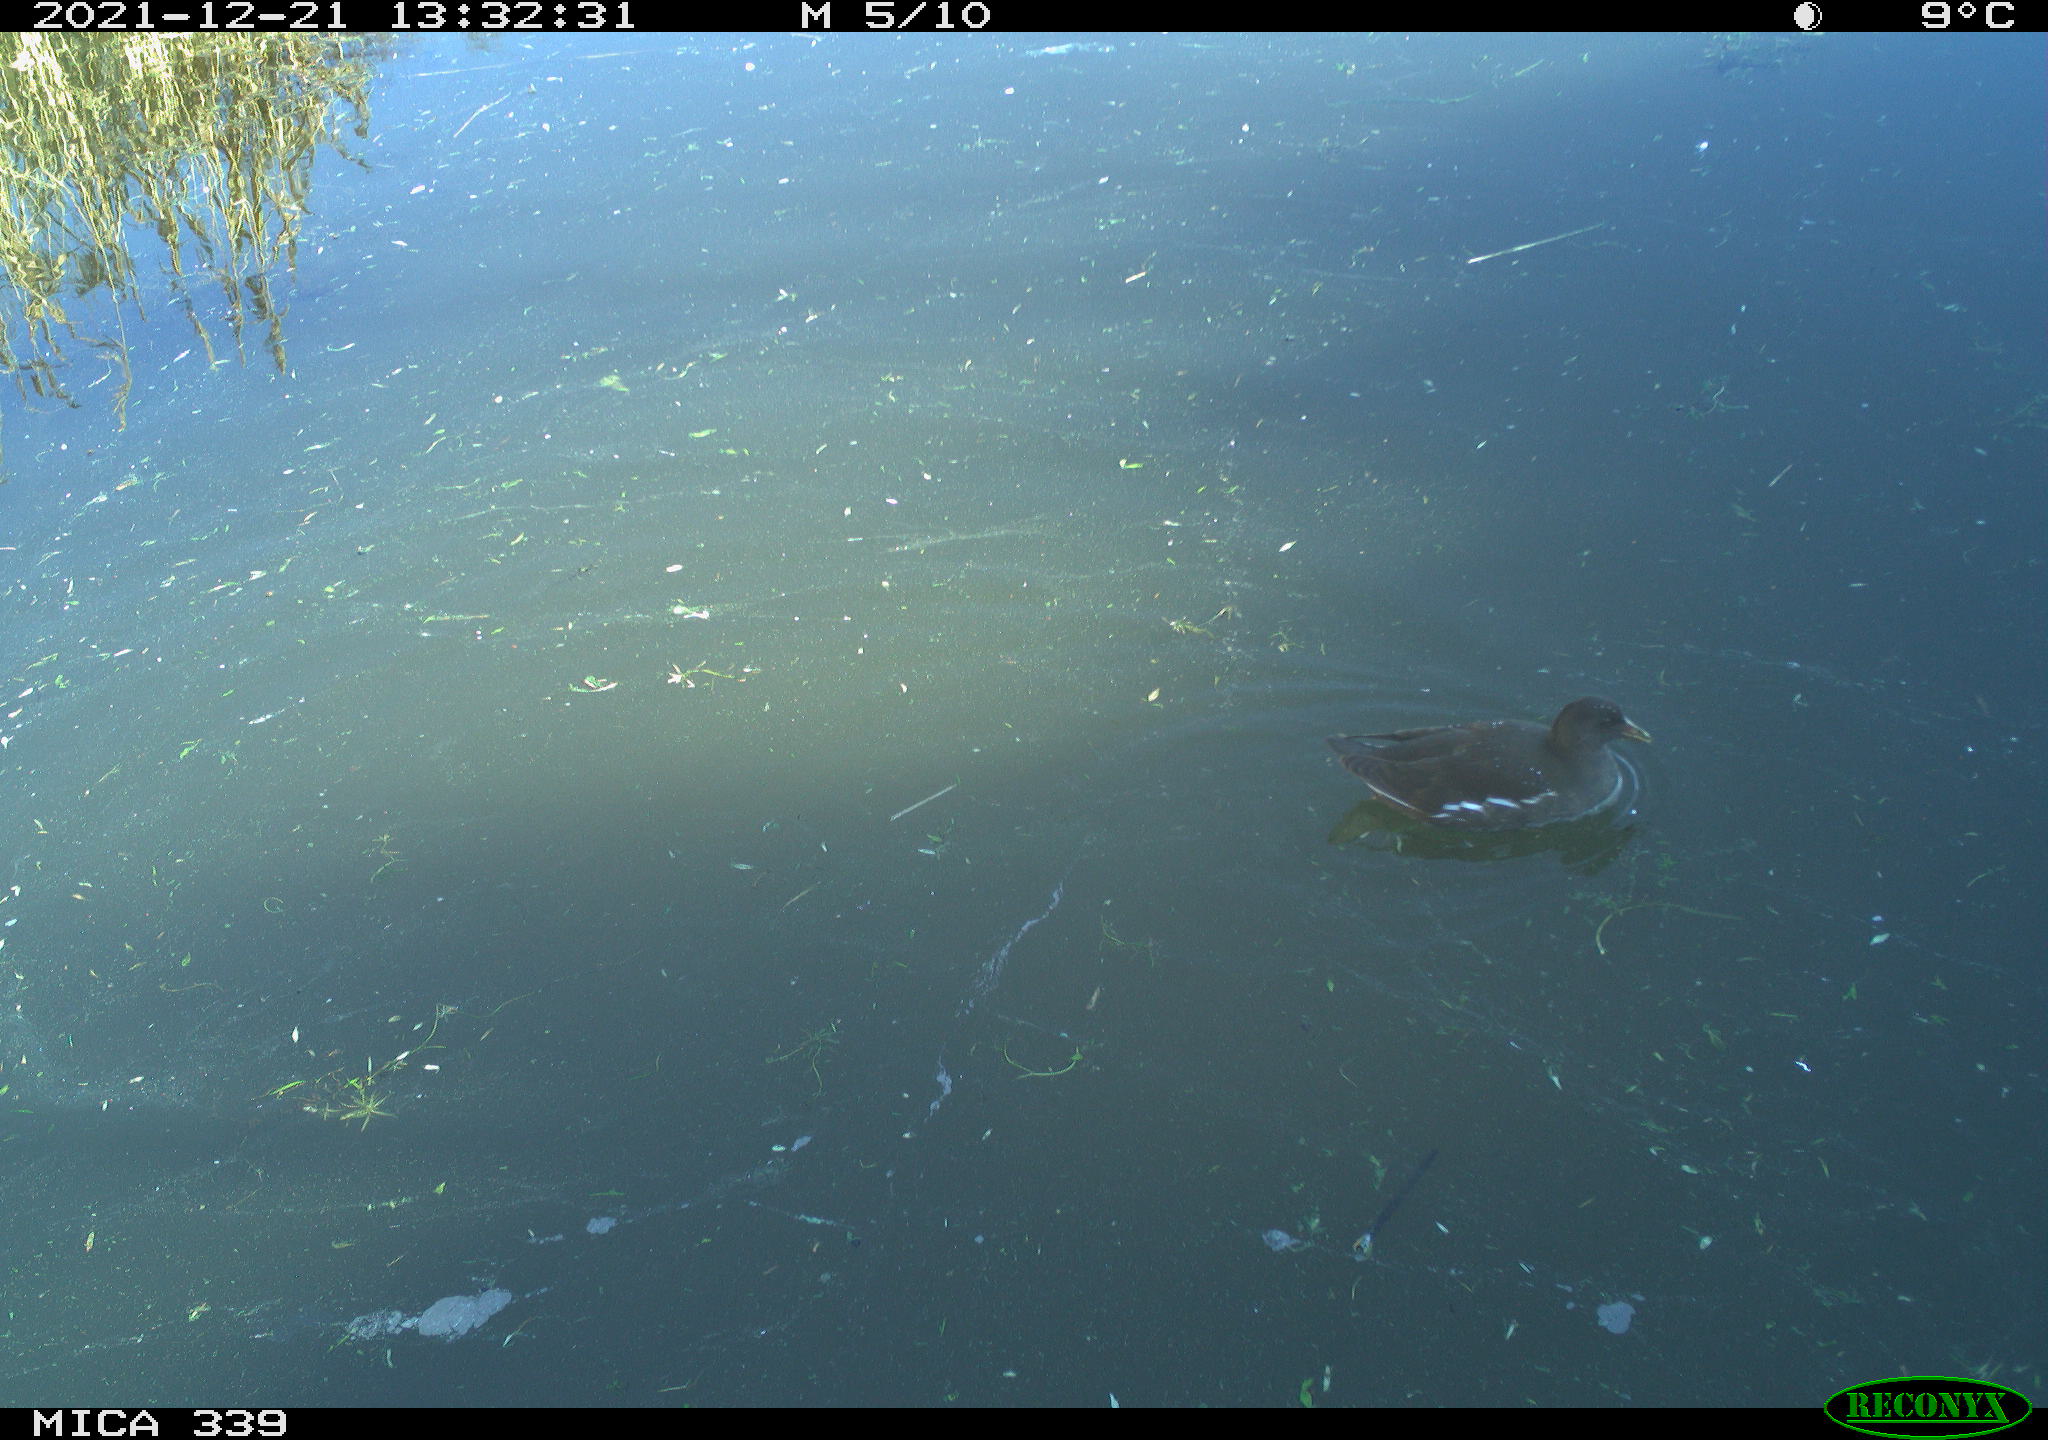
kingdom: Animalia
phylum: Chordata
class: Aves
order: Gruiformes
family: Rallidae
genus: Gallinula
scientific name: Gallinula chloropus
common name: Common moorhen
